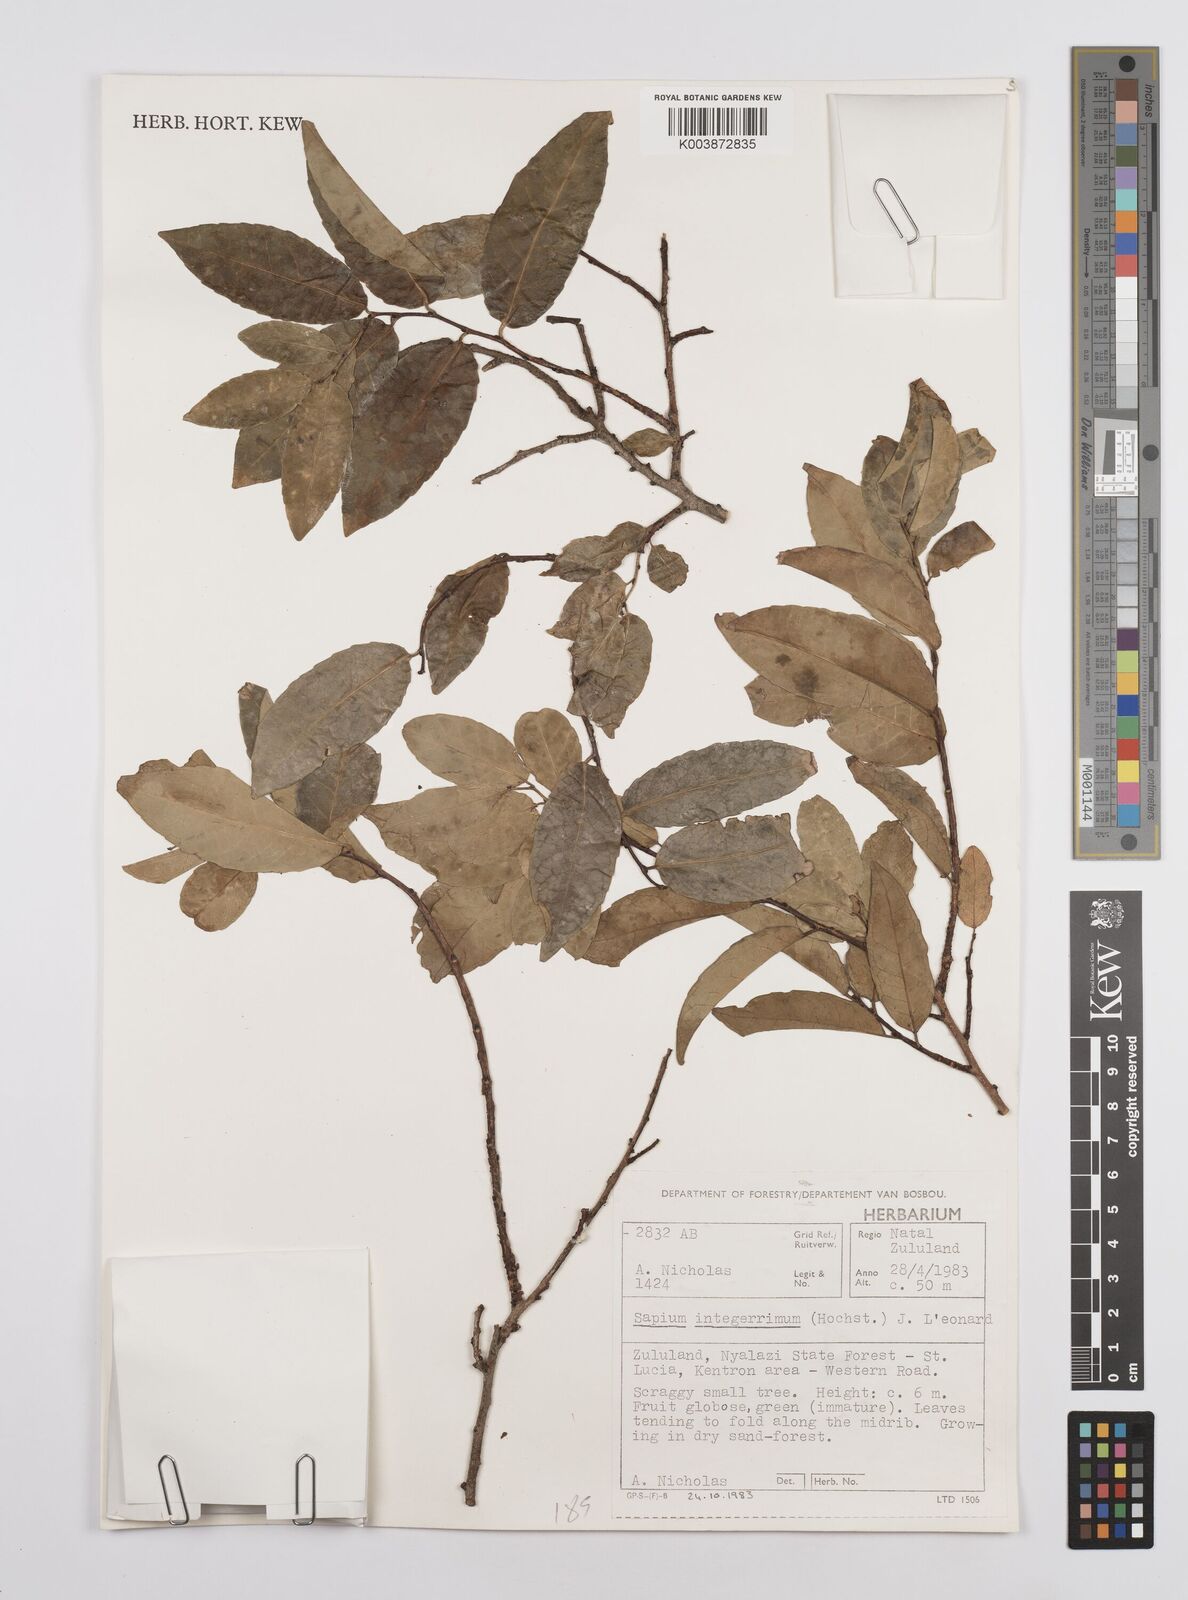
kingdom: Plantae
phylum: Tracheophyta
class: Magnoliopsida
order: Malpighiales
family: Euphorbiaceae
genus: Sclerocroton
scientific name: Sclerocroton integerrimus
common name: Duiker berry
